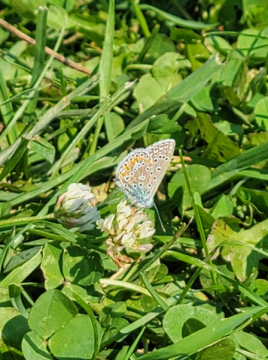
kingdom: Animalia
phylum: Arthropoda
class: Insecta
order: Lepidoptera
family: Lycaenidae
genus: Polyommatus
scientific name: Polyommatus icarus
